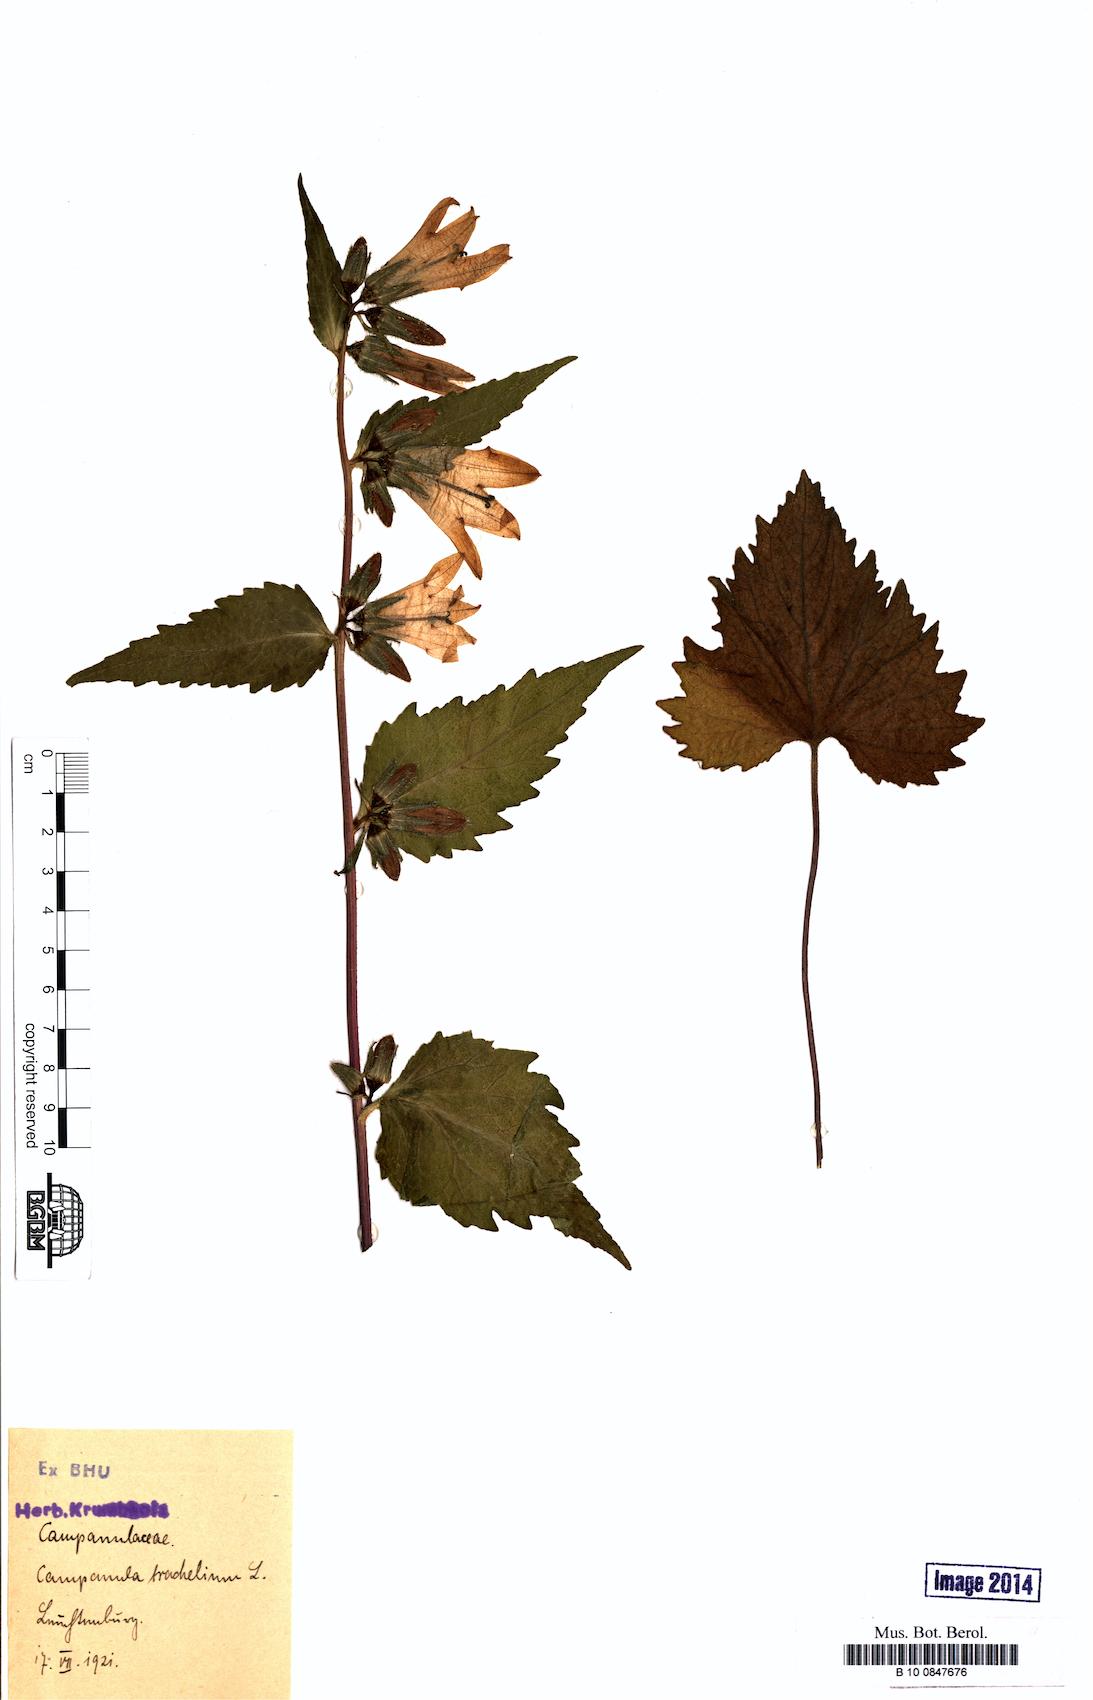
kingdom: Plantae
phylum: Tracheophyta
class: Magnoliopsida
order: Asterales
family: Campanulaceae
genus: Campanula
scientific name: Campanula trachelium
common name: Nettle-leaved bellflower
